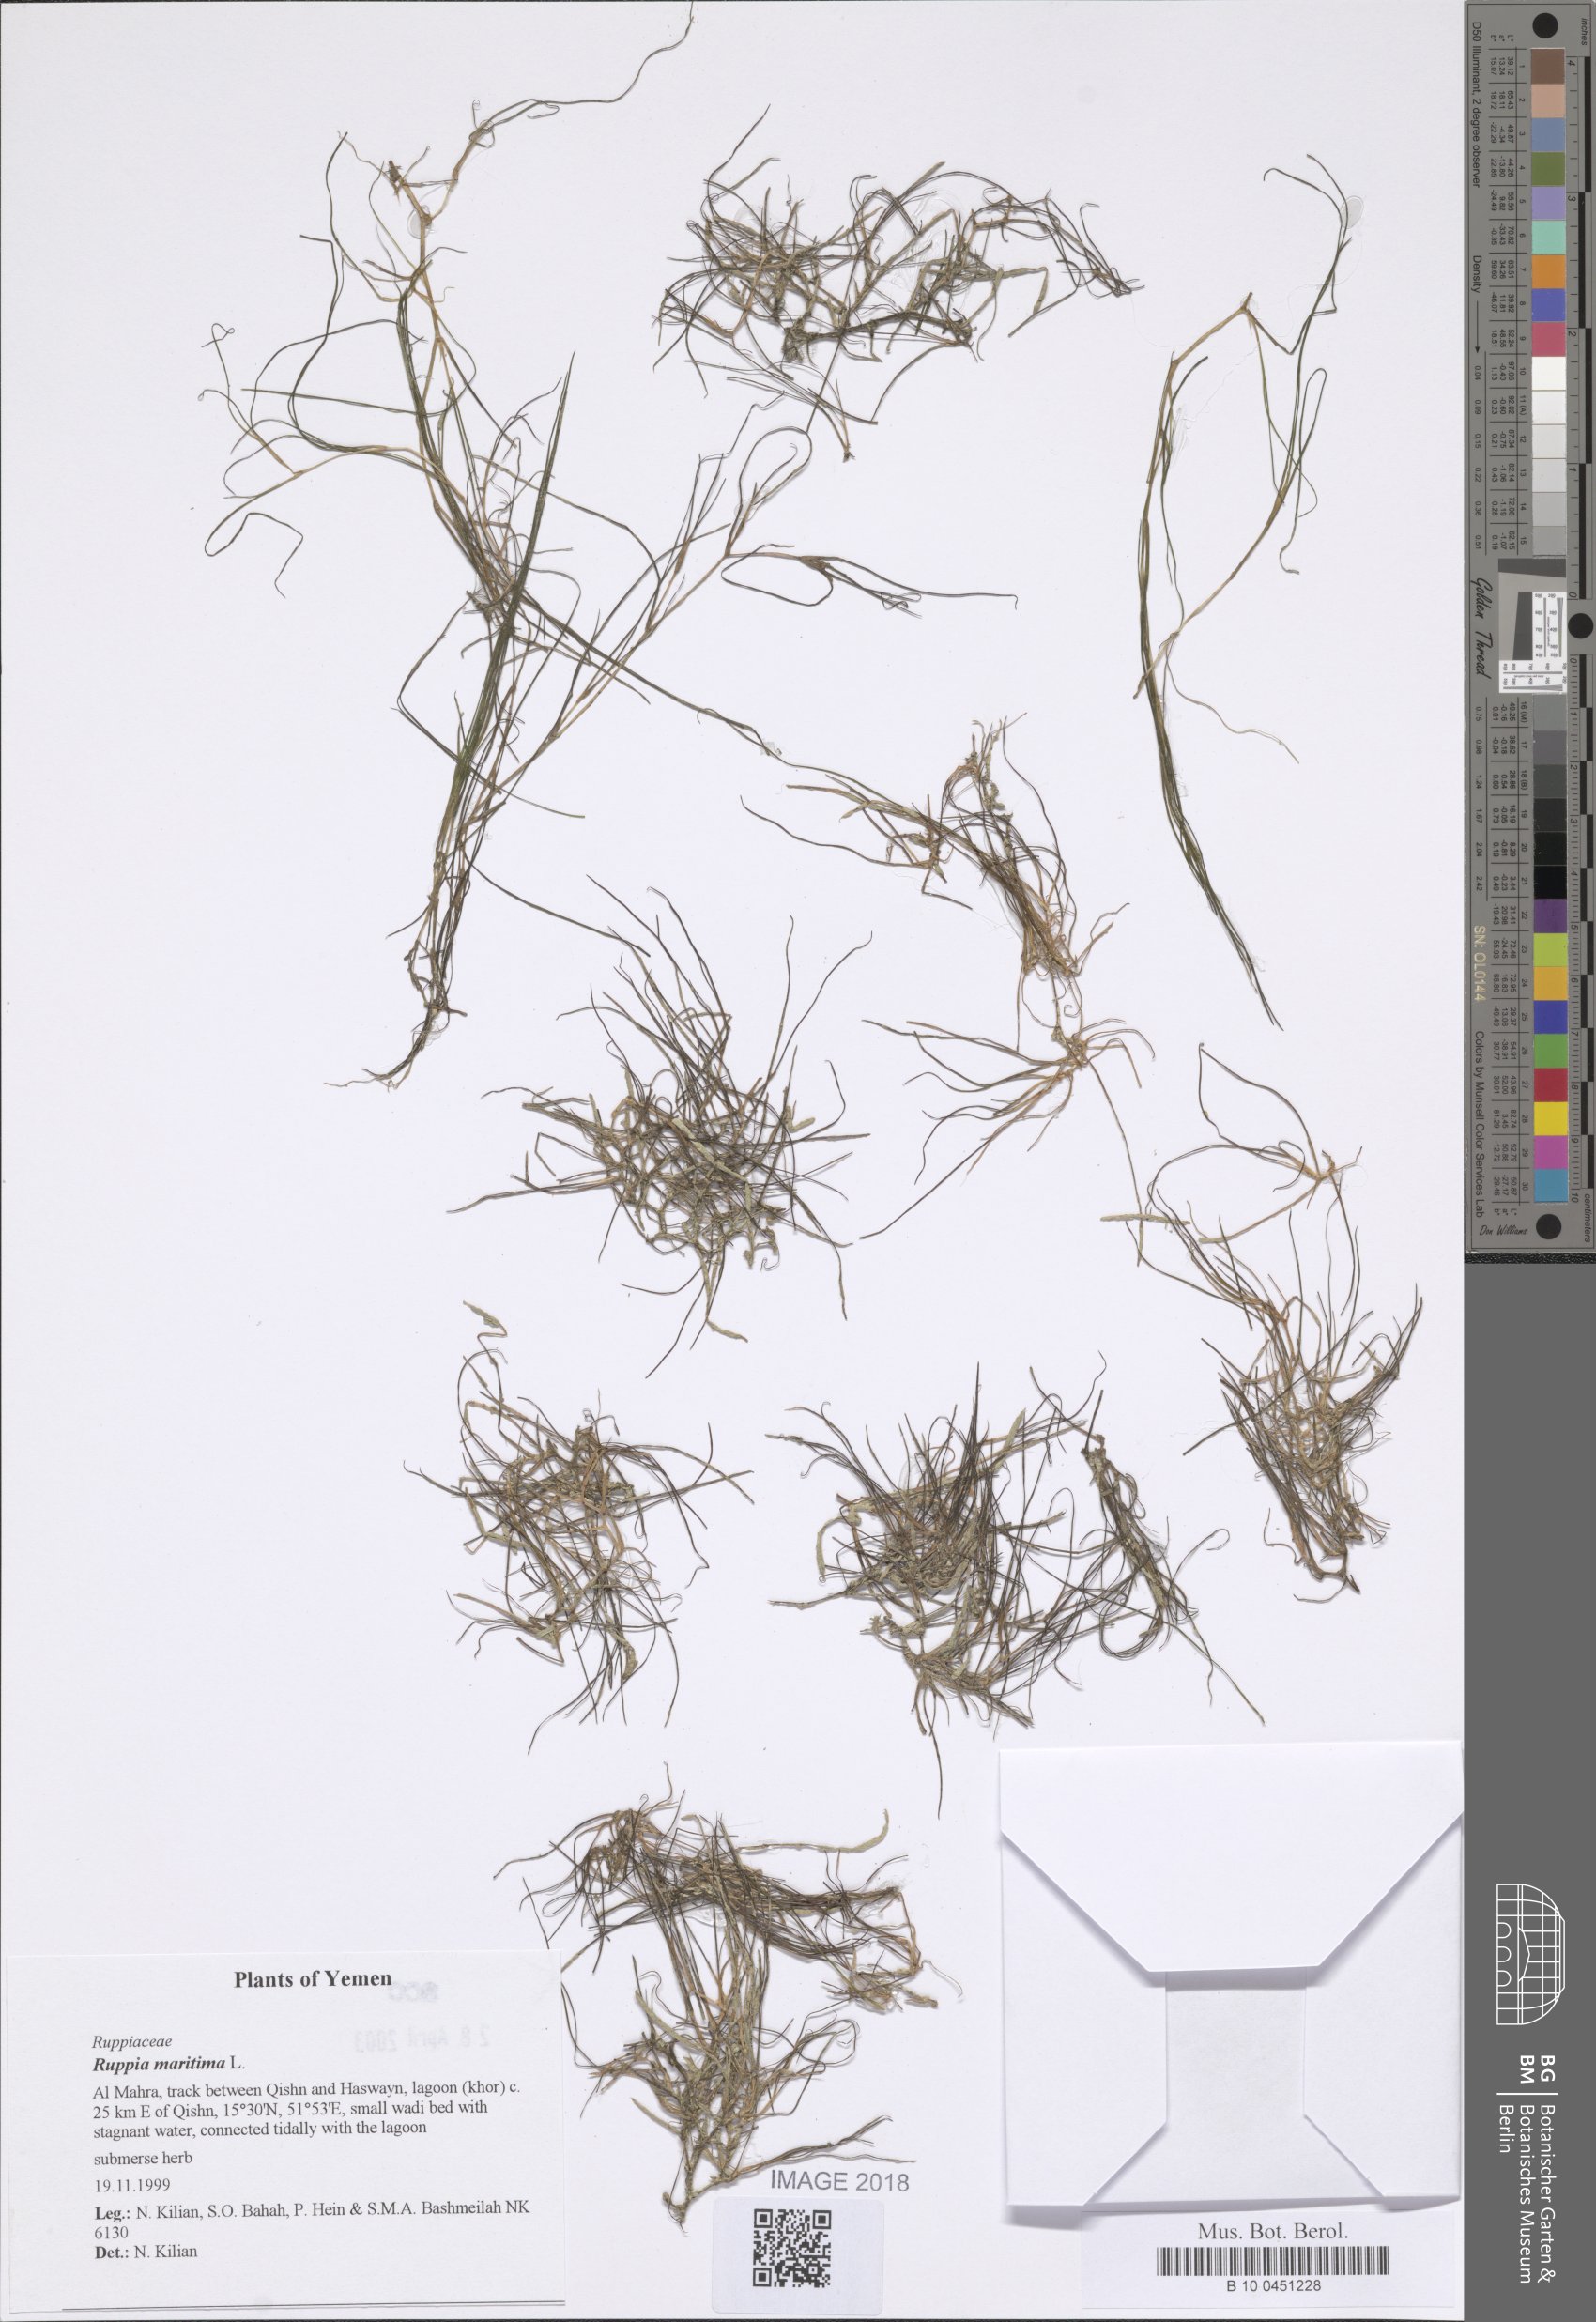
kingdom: Plantae
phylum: Tracheophyta
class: Liliopsida
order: Alismatales
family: Ruppiaceae
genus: Ruppia
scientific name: Ruppia maritima
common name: Beaked tasselweed
